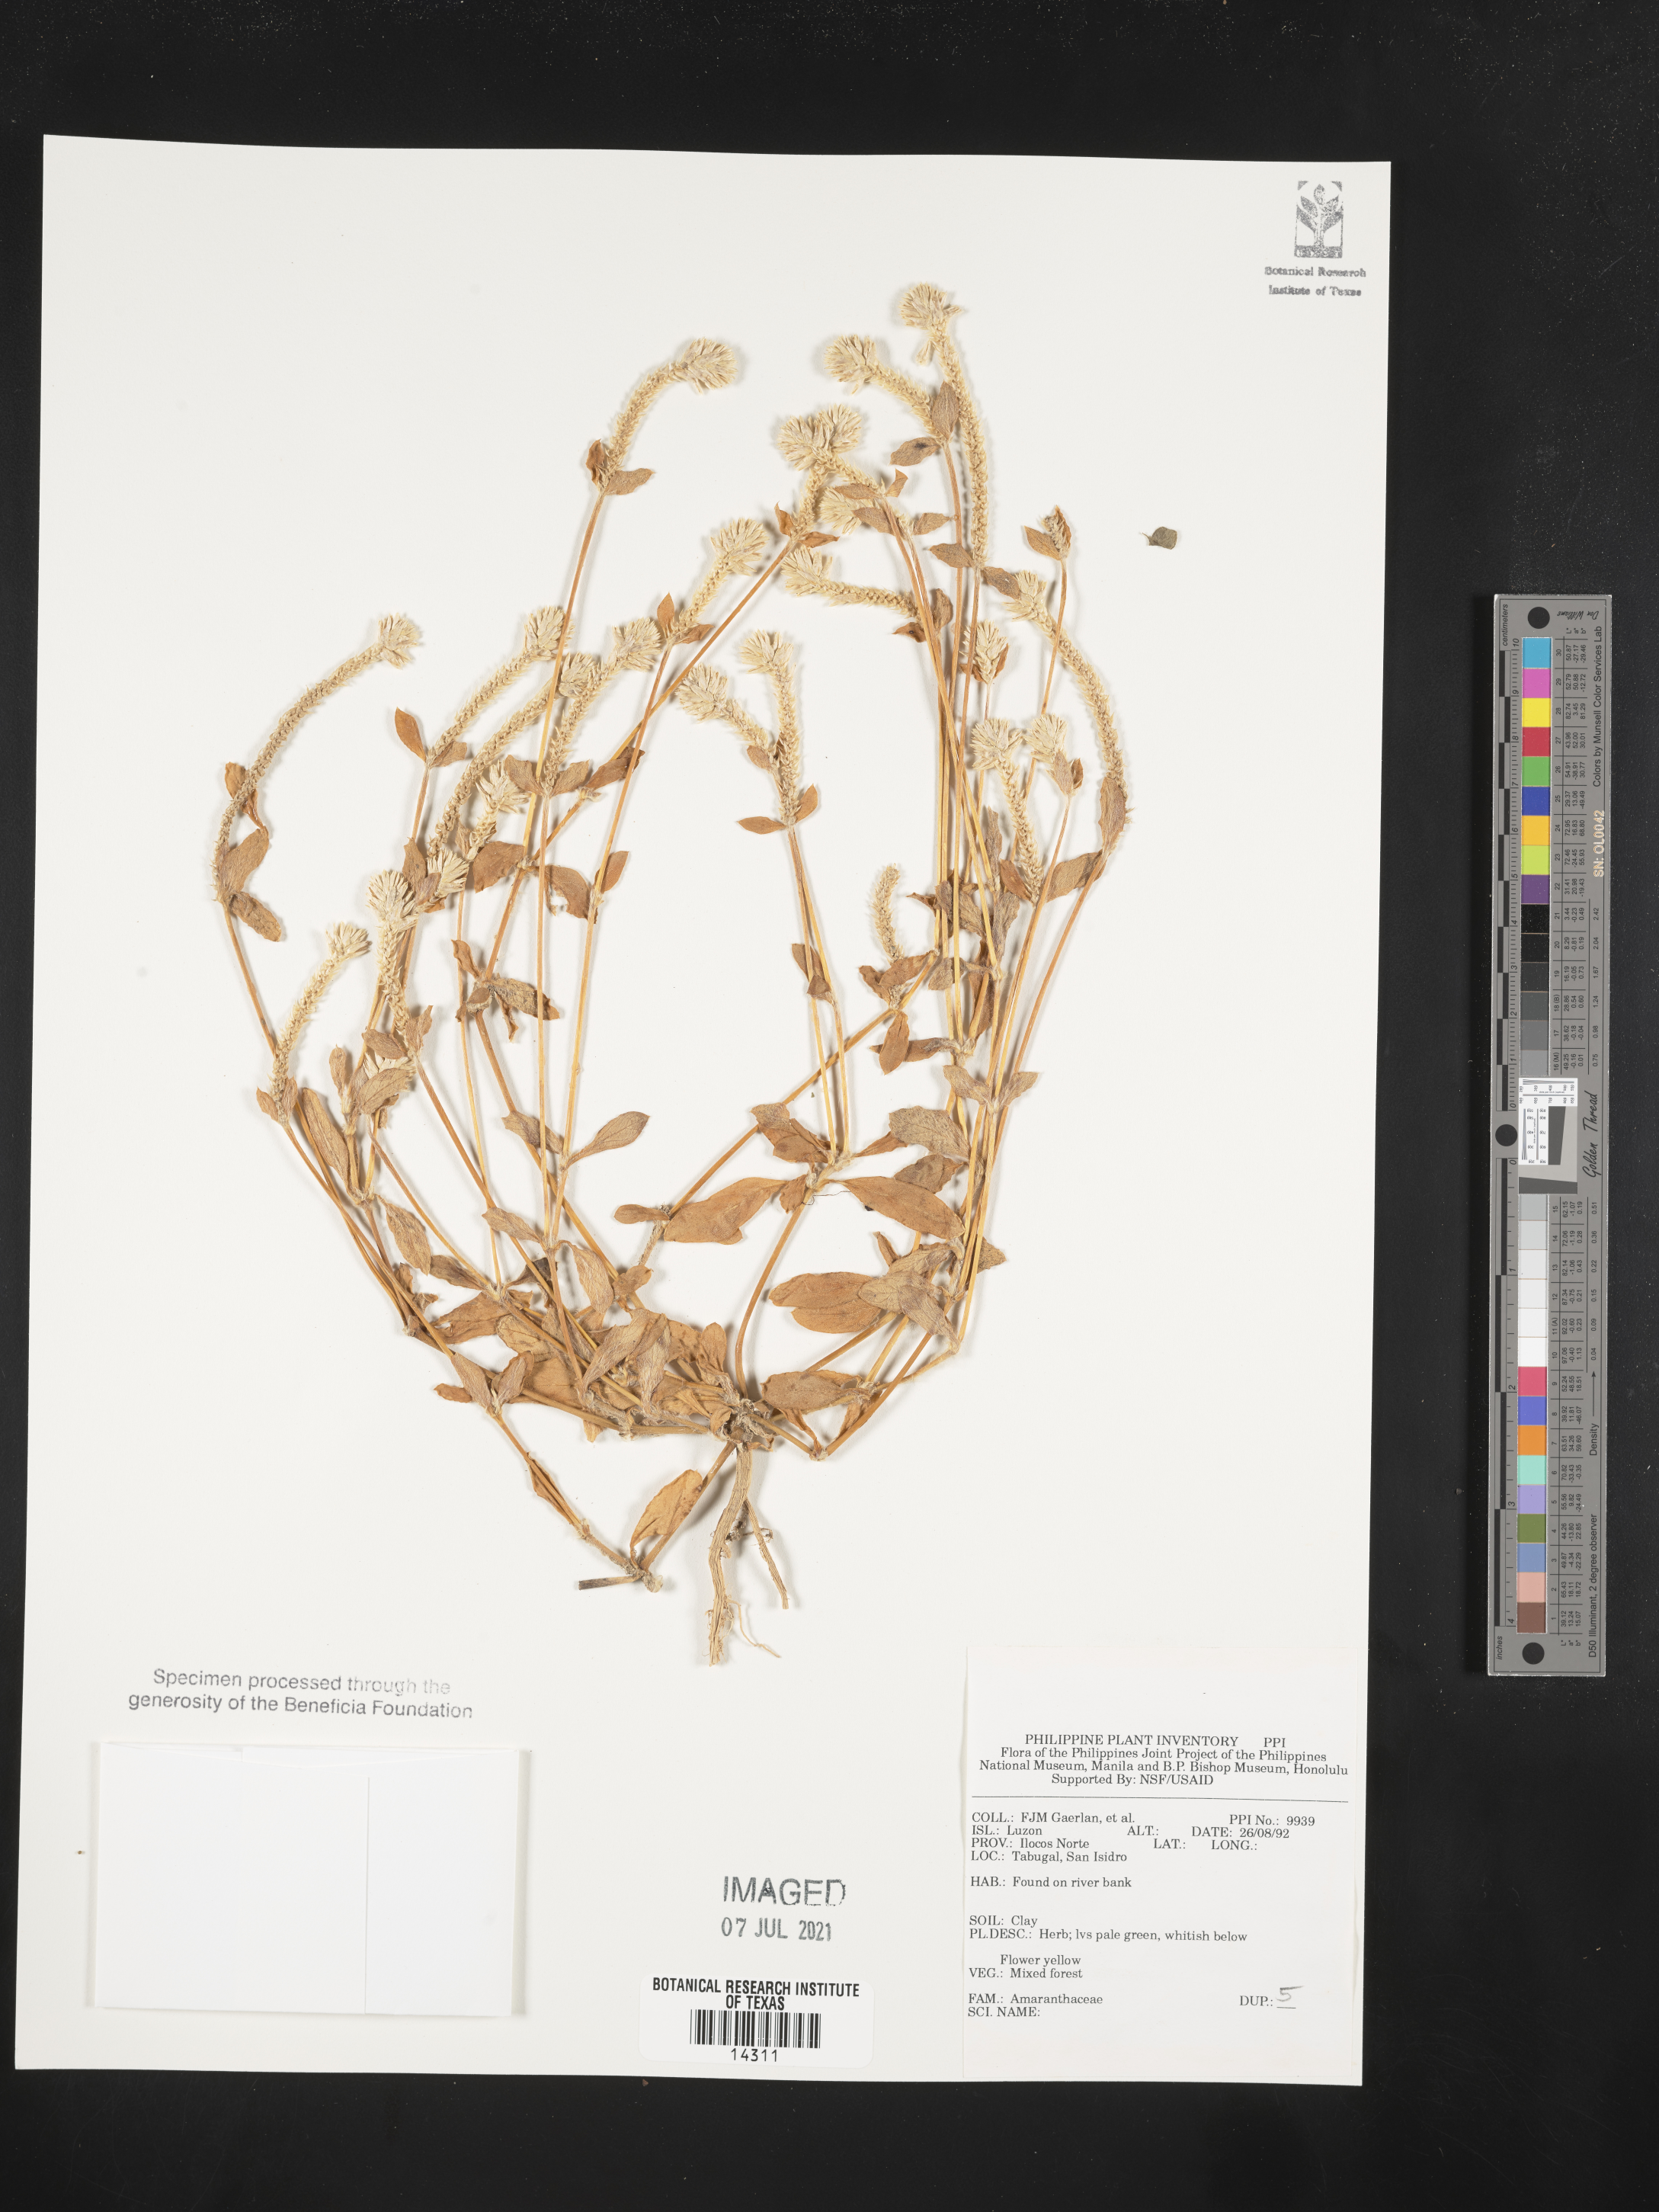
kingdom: Plantae
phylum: Tracheophyta
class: Magnoliopsida
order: Caryophyllales
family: Amaranthaceae
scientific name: Amaranthaceae
